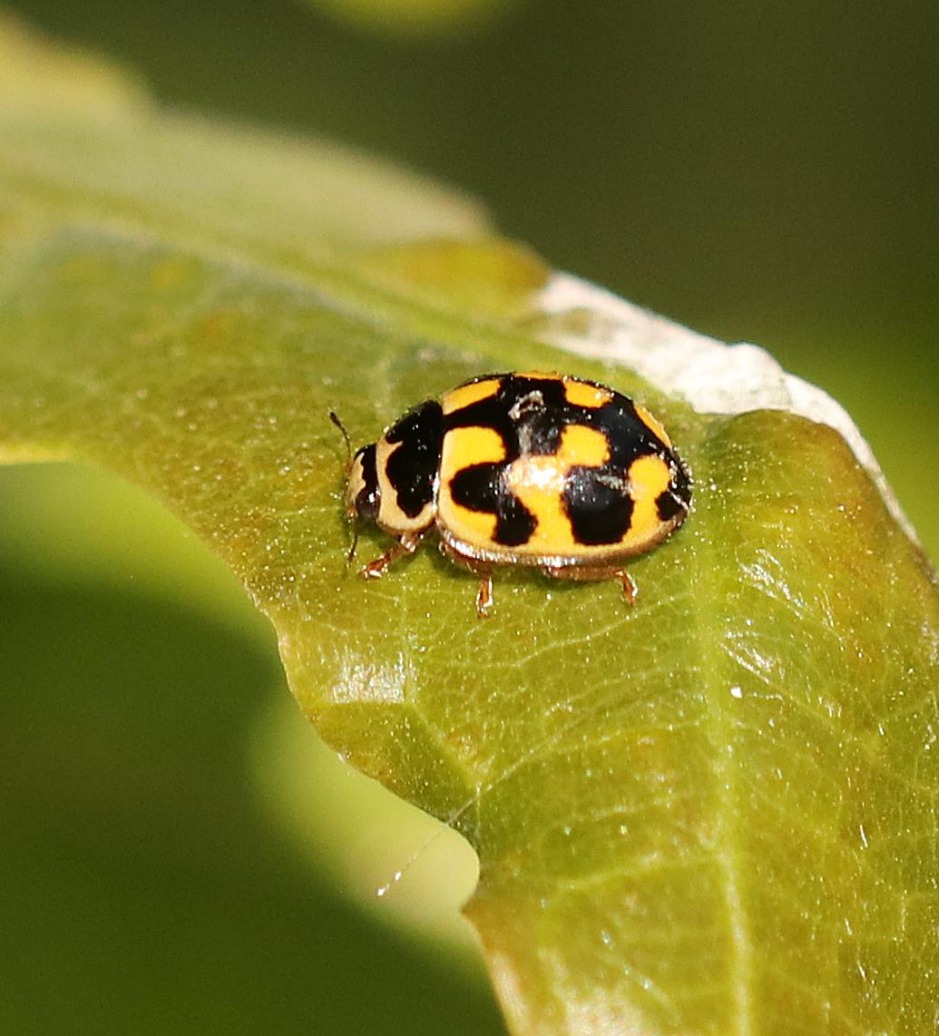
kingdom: Animalia
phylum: Arthropoda
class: Insecta
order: Coleoptera
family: Coccinellidae
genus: Propylaea
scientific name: Propylaea quatuordecimpunctata
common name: Skakbræt
